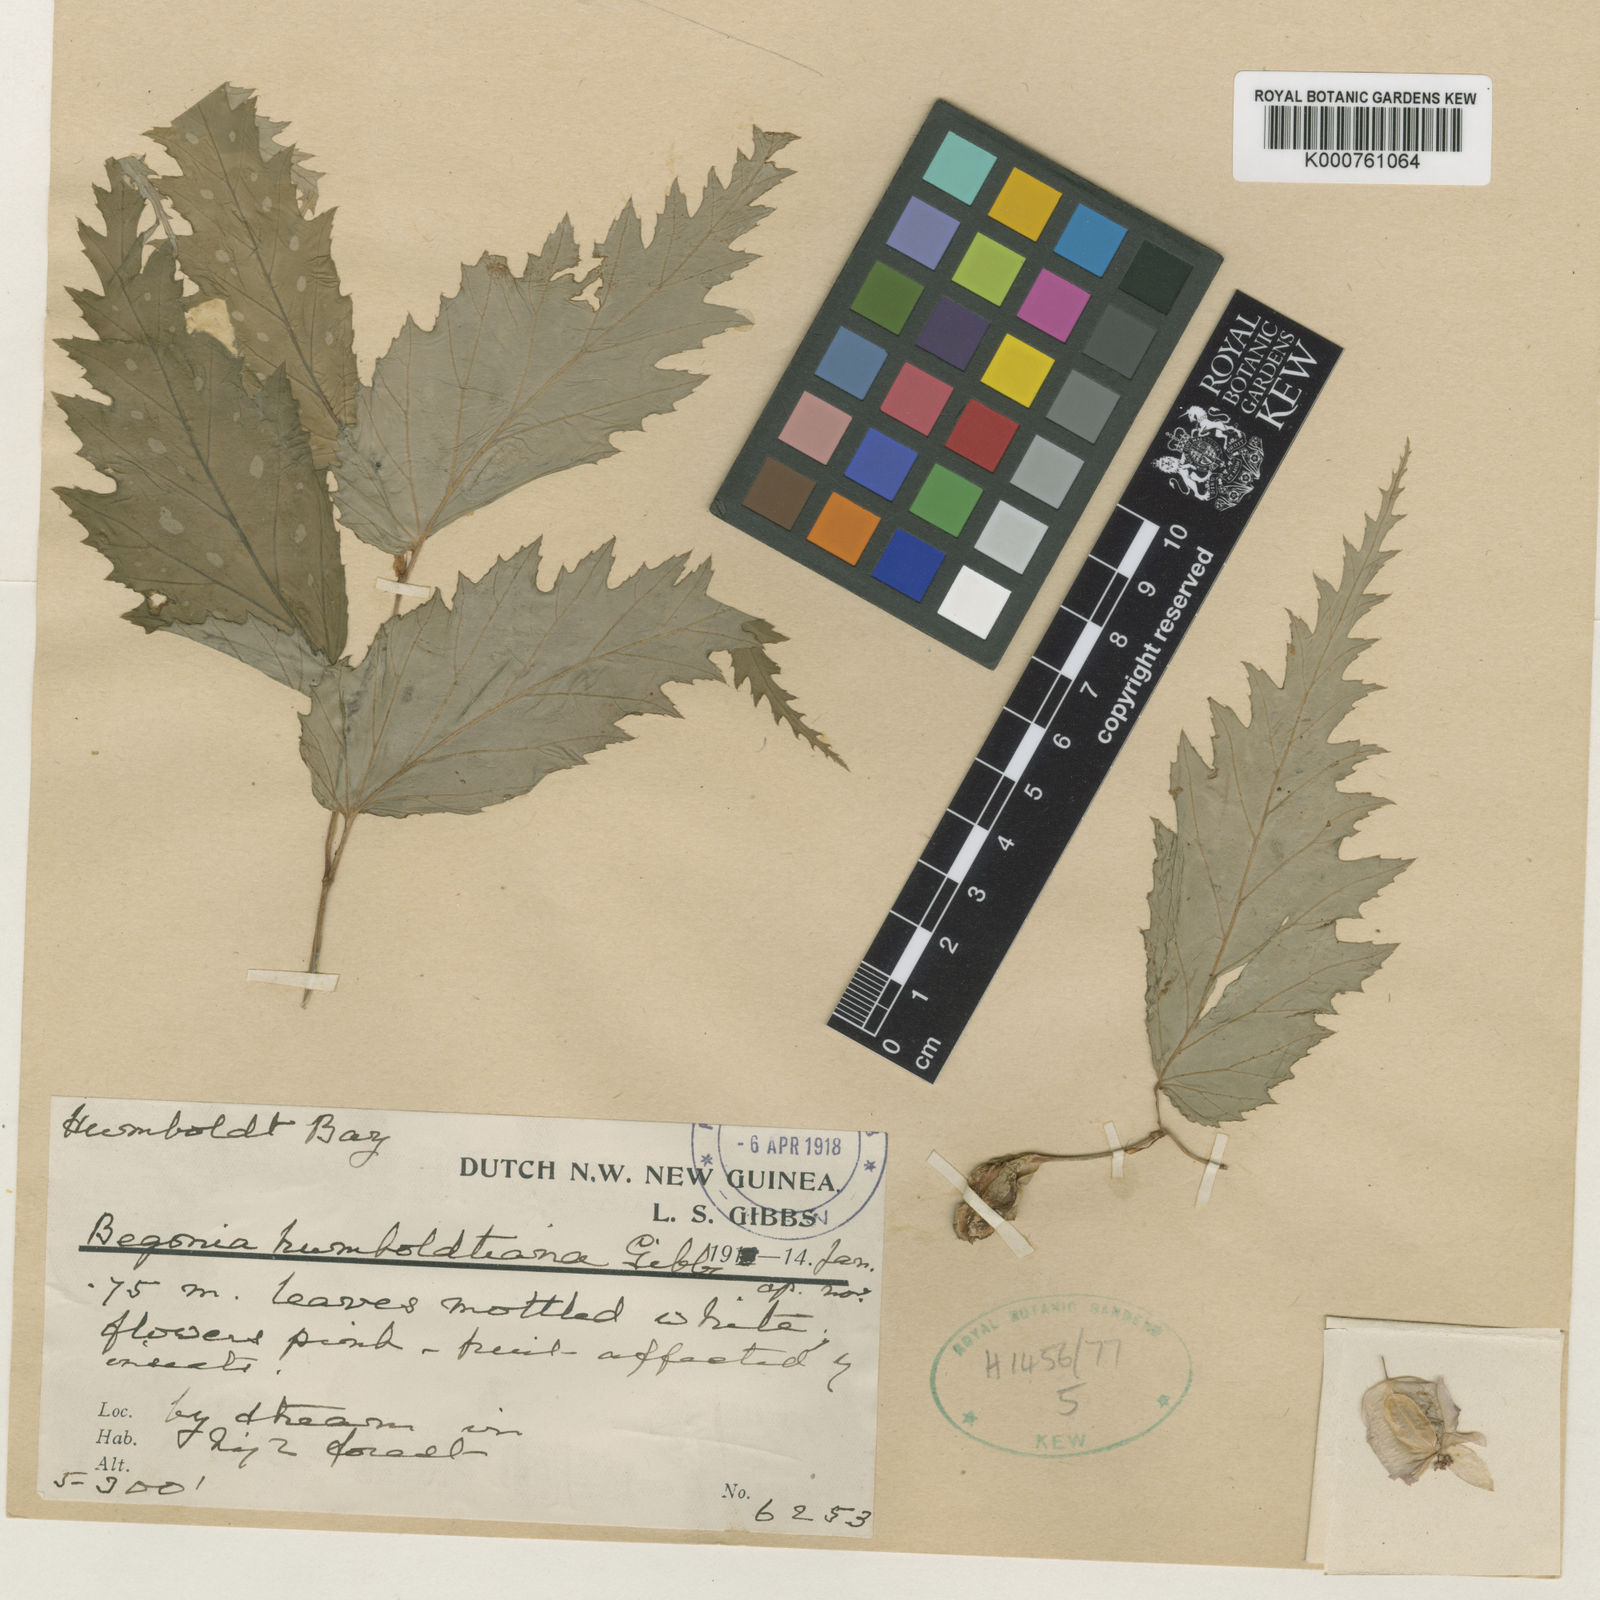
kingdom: Plantae
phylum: Tracheophyta
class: Magnoliopsida
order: Cucurbitales
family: Begoniaceae
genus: Begonia
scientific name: Begonia humboldtiana
